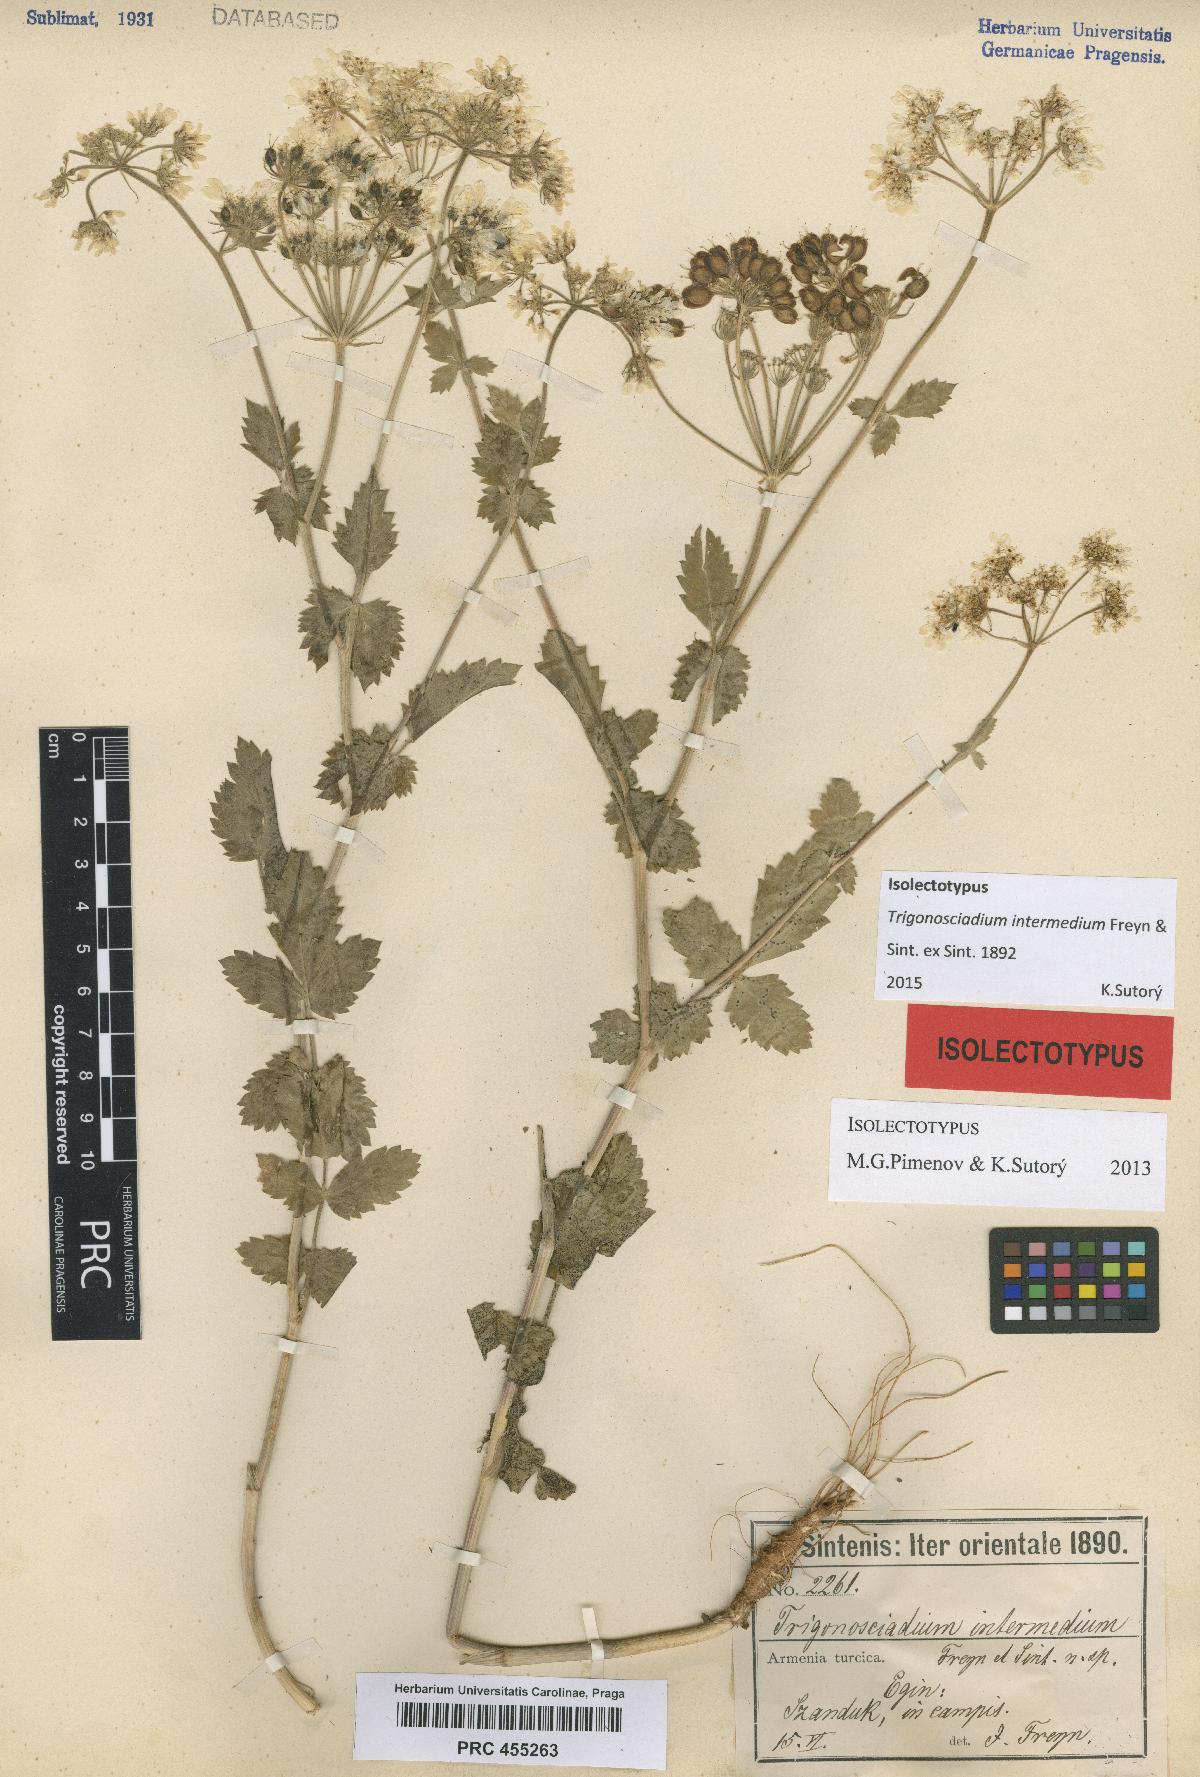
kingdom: Plantae
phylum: Tracheophyta
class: Magnoliopsida
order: Apiales
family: Apiaceae
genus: Trigonosciadium
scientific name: Trigonosciadium intermedium
